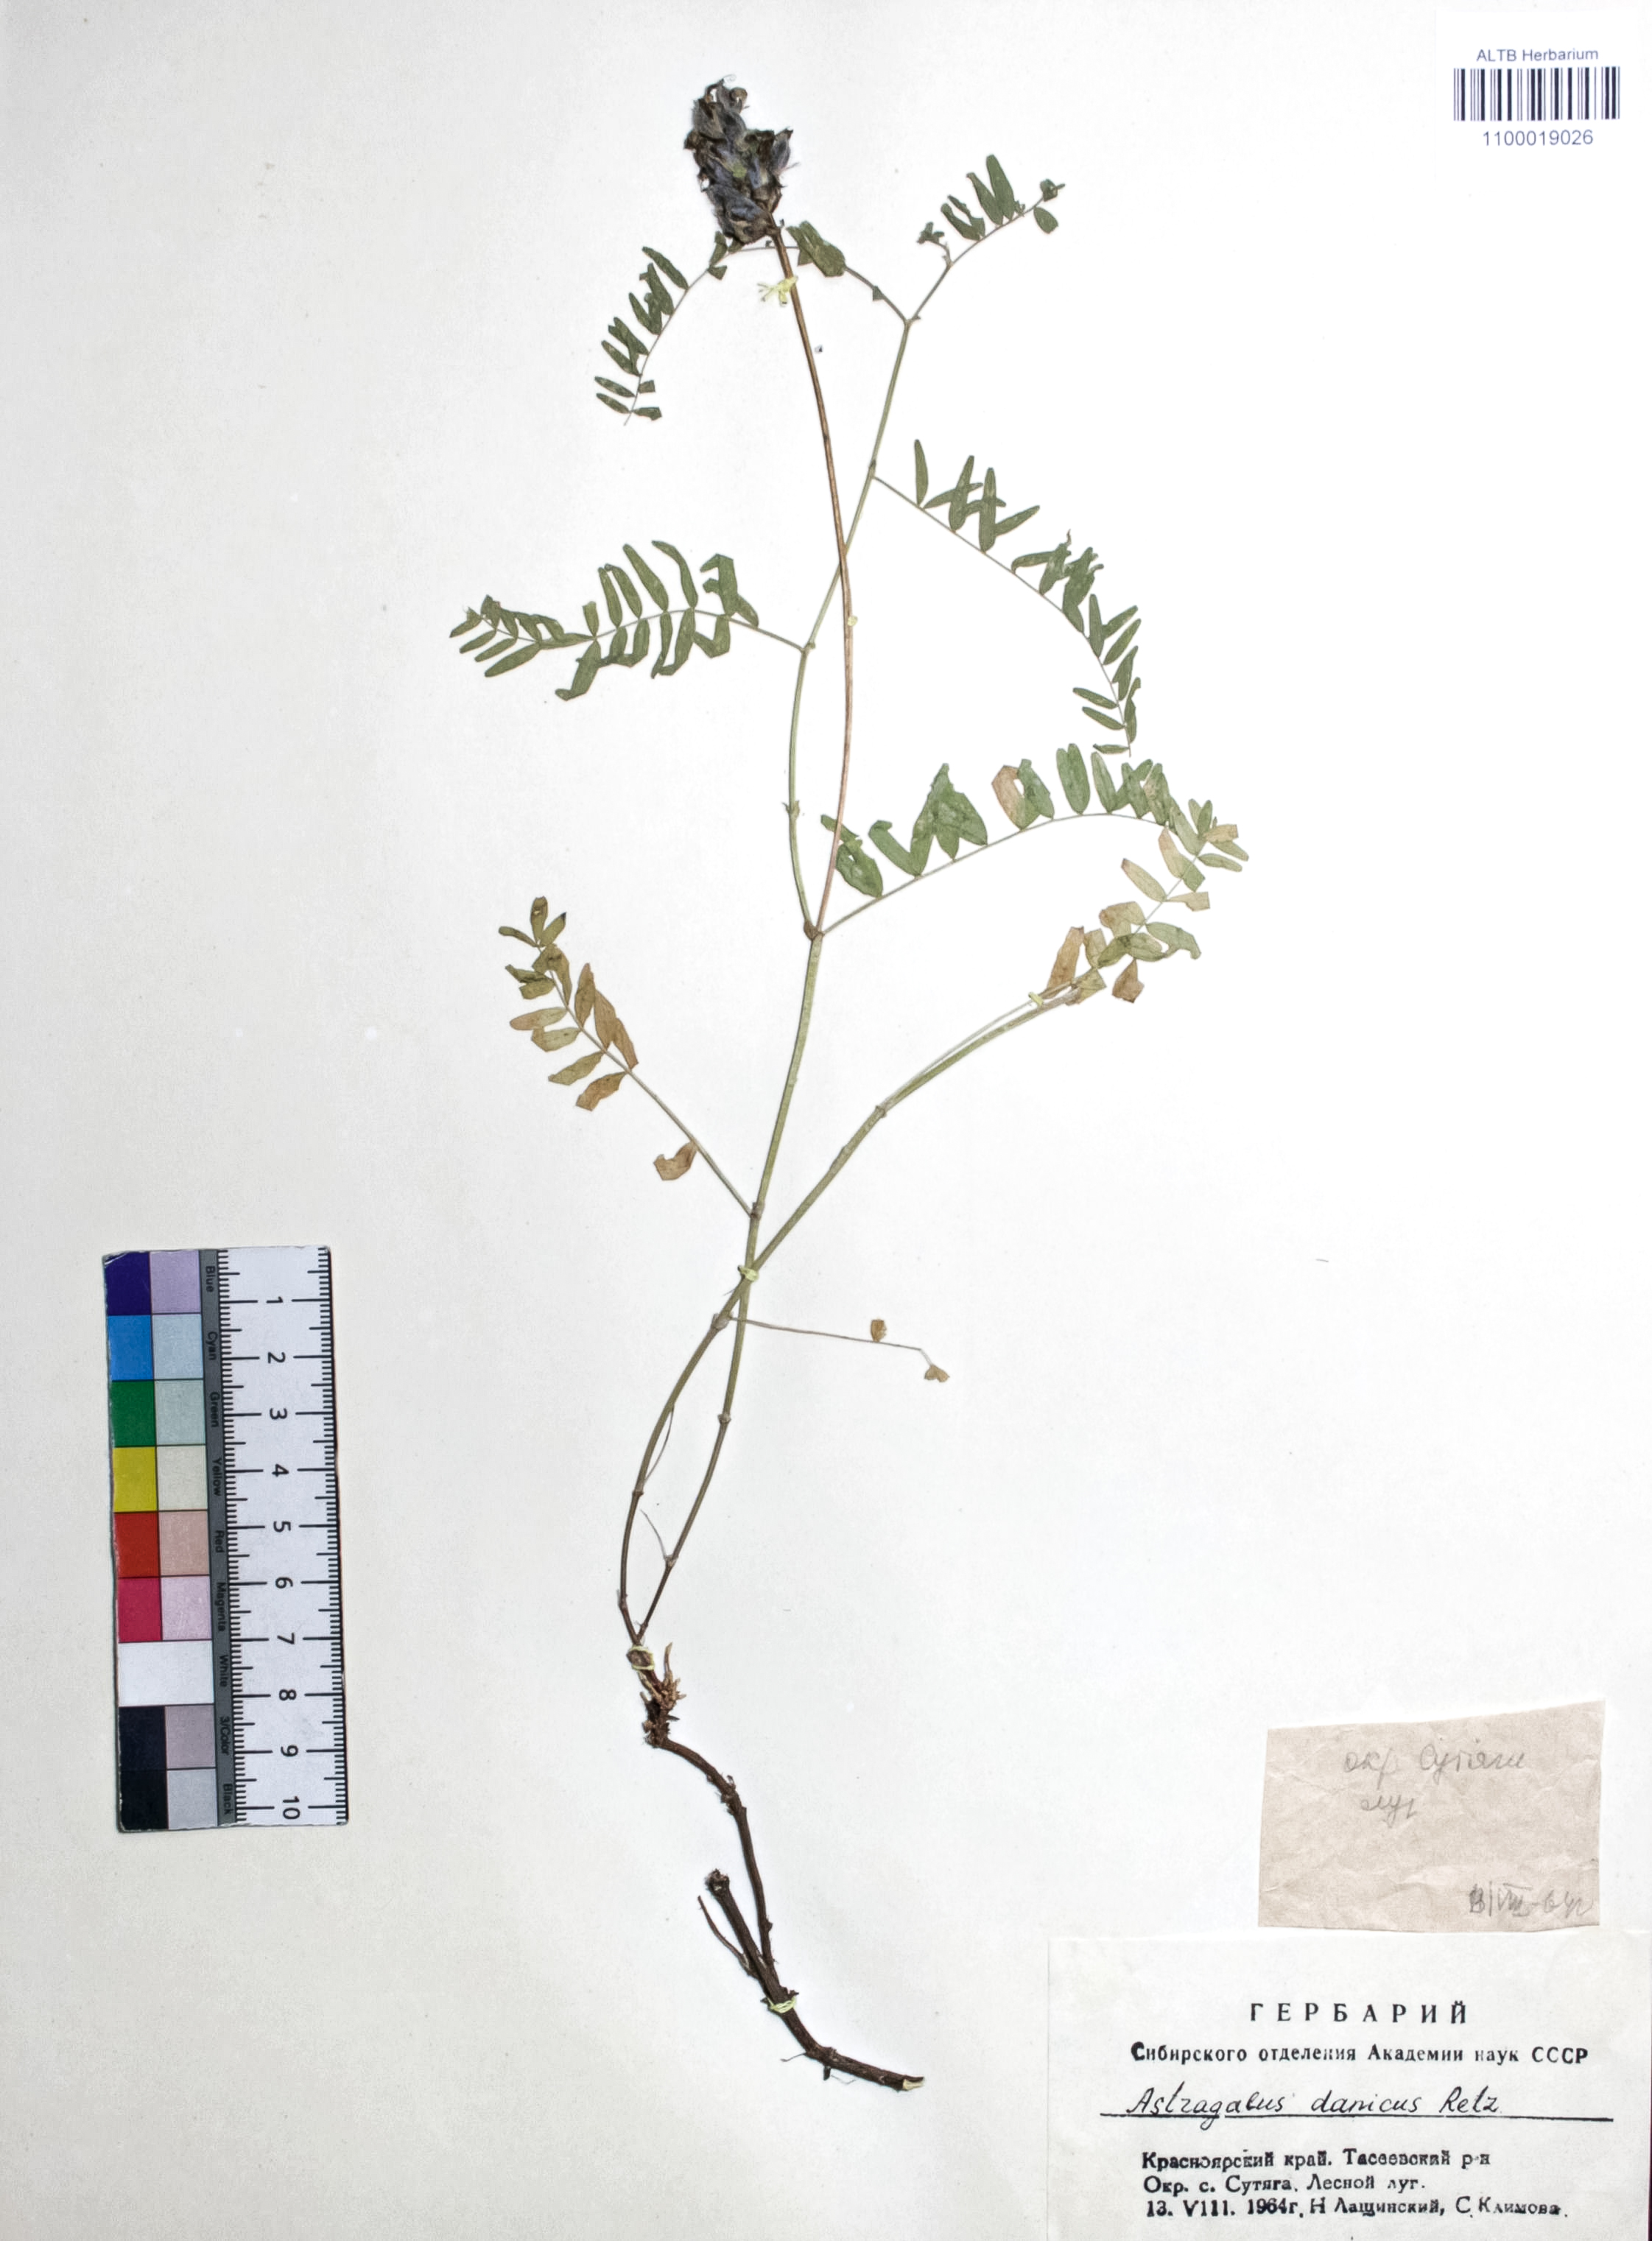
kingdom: Plantae
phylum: Tracheophyta
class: Magnoliopsida
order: Fabales
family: Fabaceae
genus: Astragalus
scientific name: Astragalus danicus
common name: Purple milk-vetch
